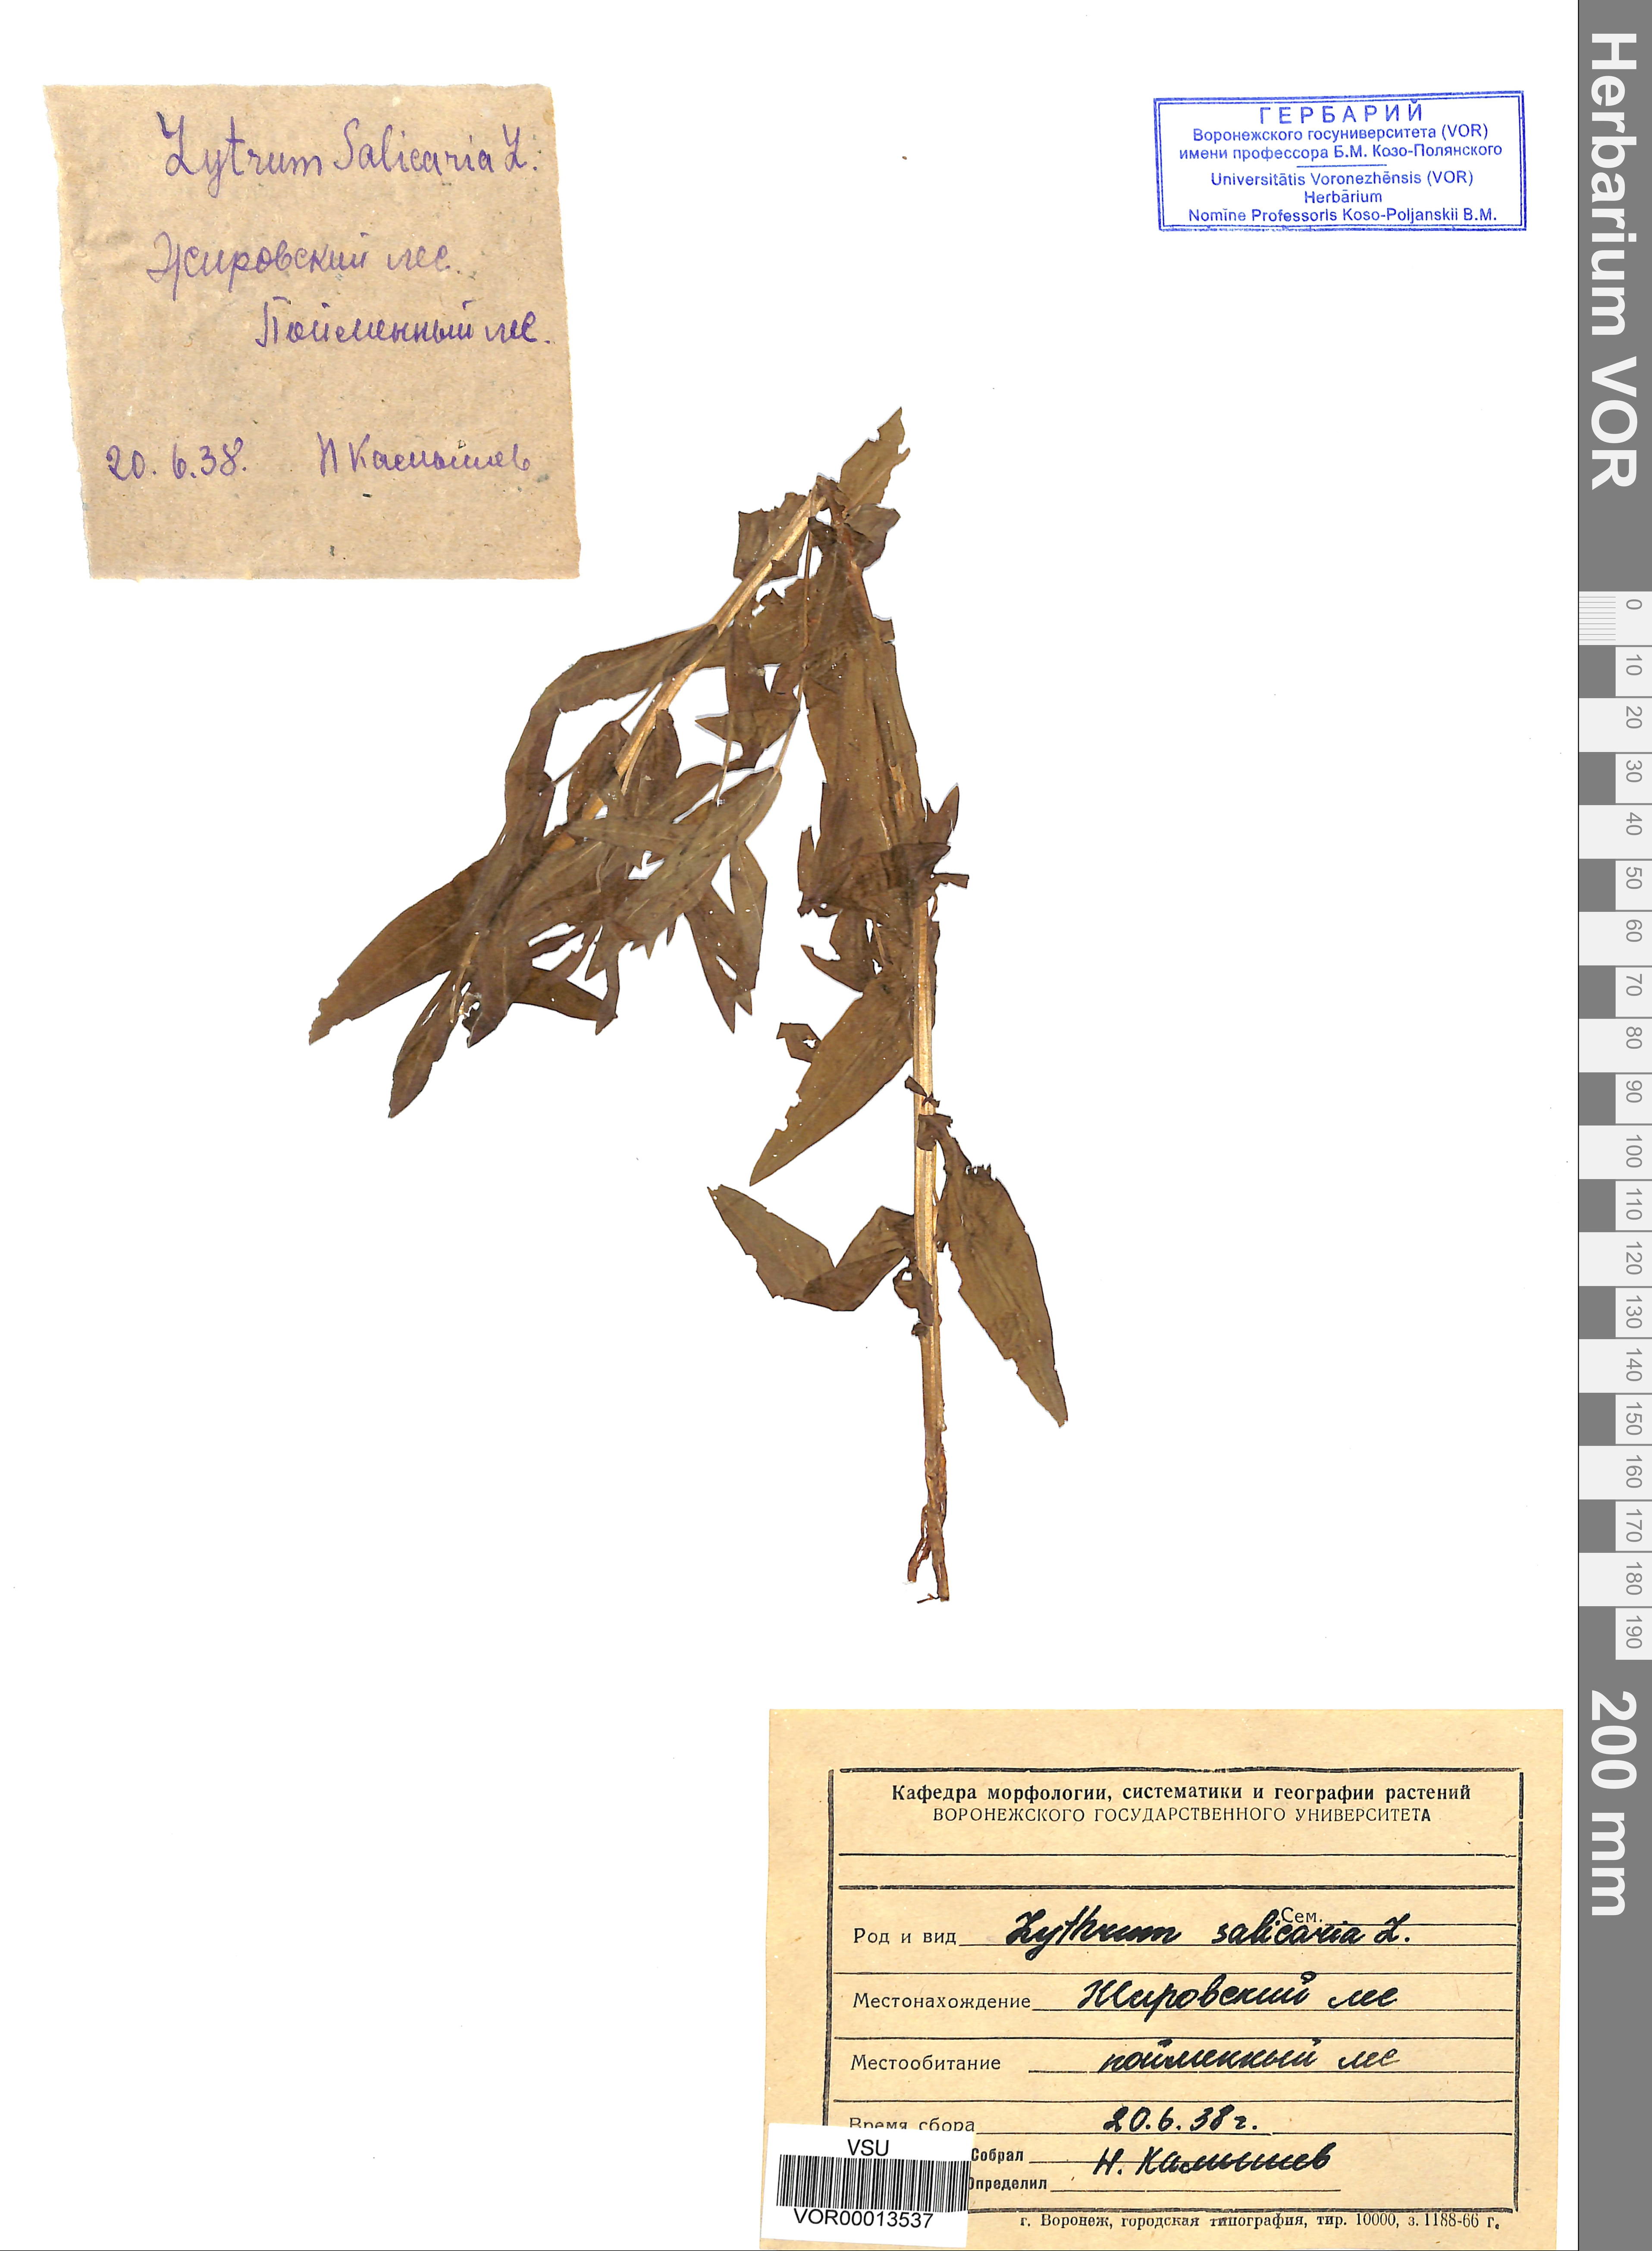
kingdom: Plantae
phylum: Tracheophyta
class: Magnoliopsida
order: Myrtales
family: Lythraceae
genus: Lythrum
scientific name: Lythrum salicaria
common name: Purple loosestrife
